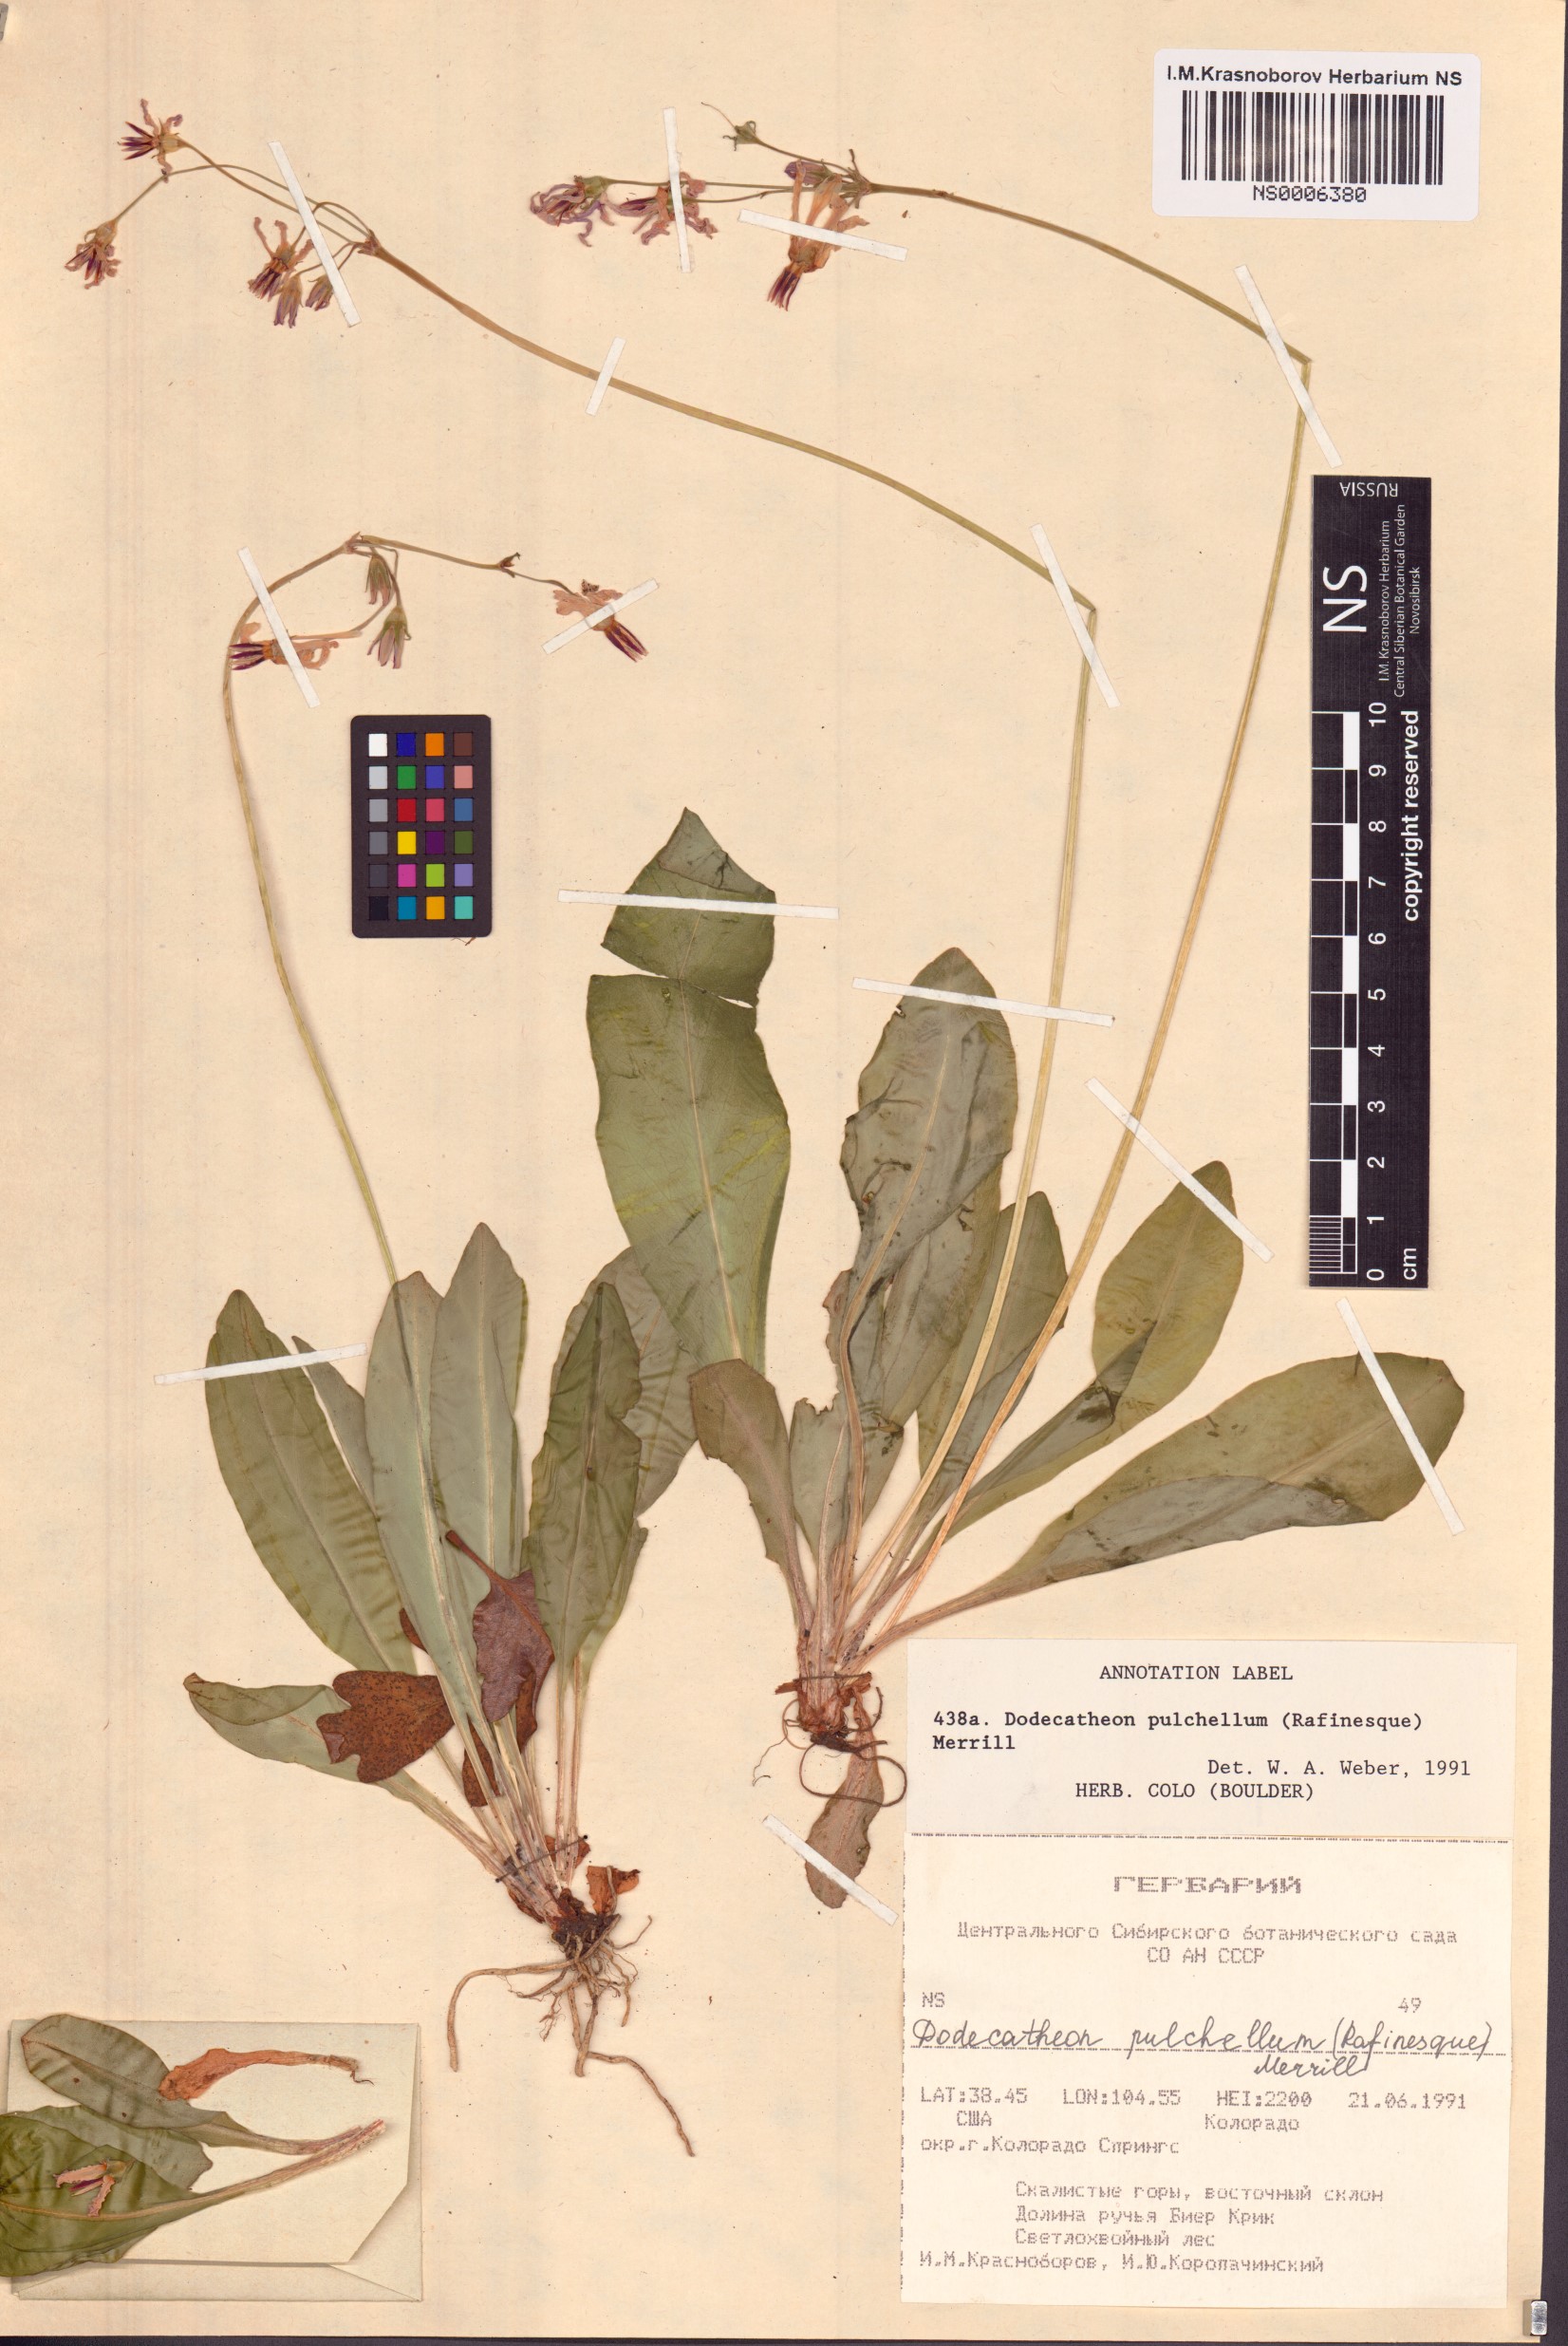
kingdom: Plantae
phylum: Tracheophyta
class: Magnoliopsida
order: Ericales
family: Primulaceae
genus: Dodecatheon
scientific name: Dodecatheon pulchellum
